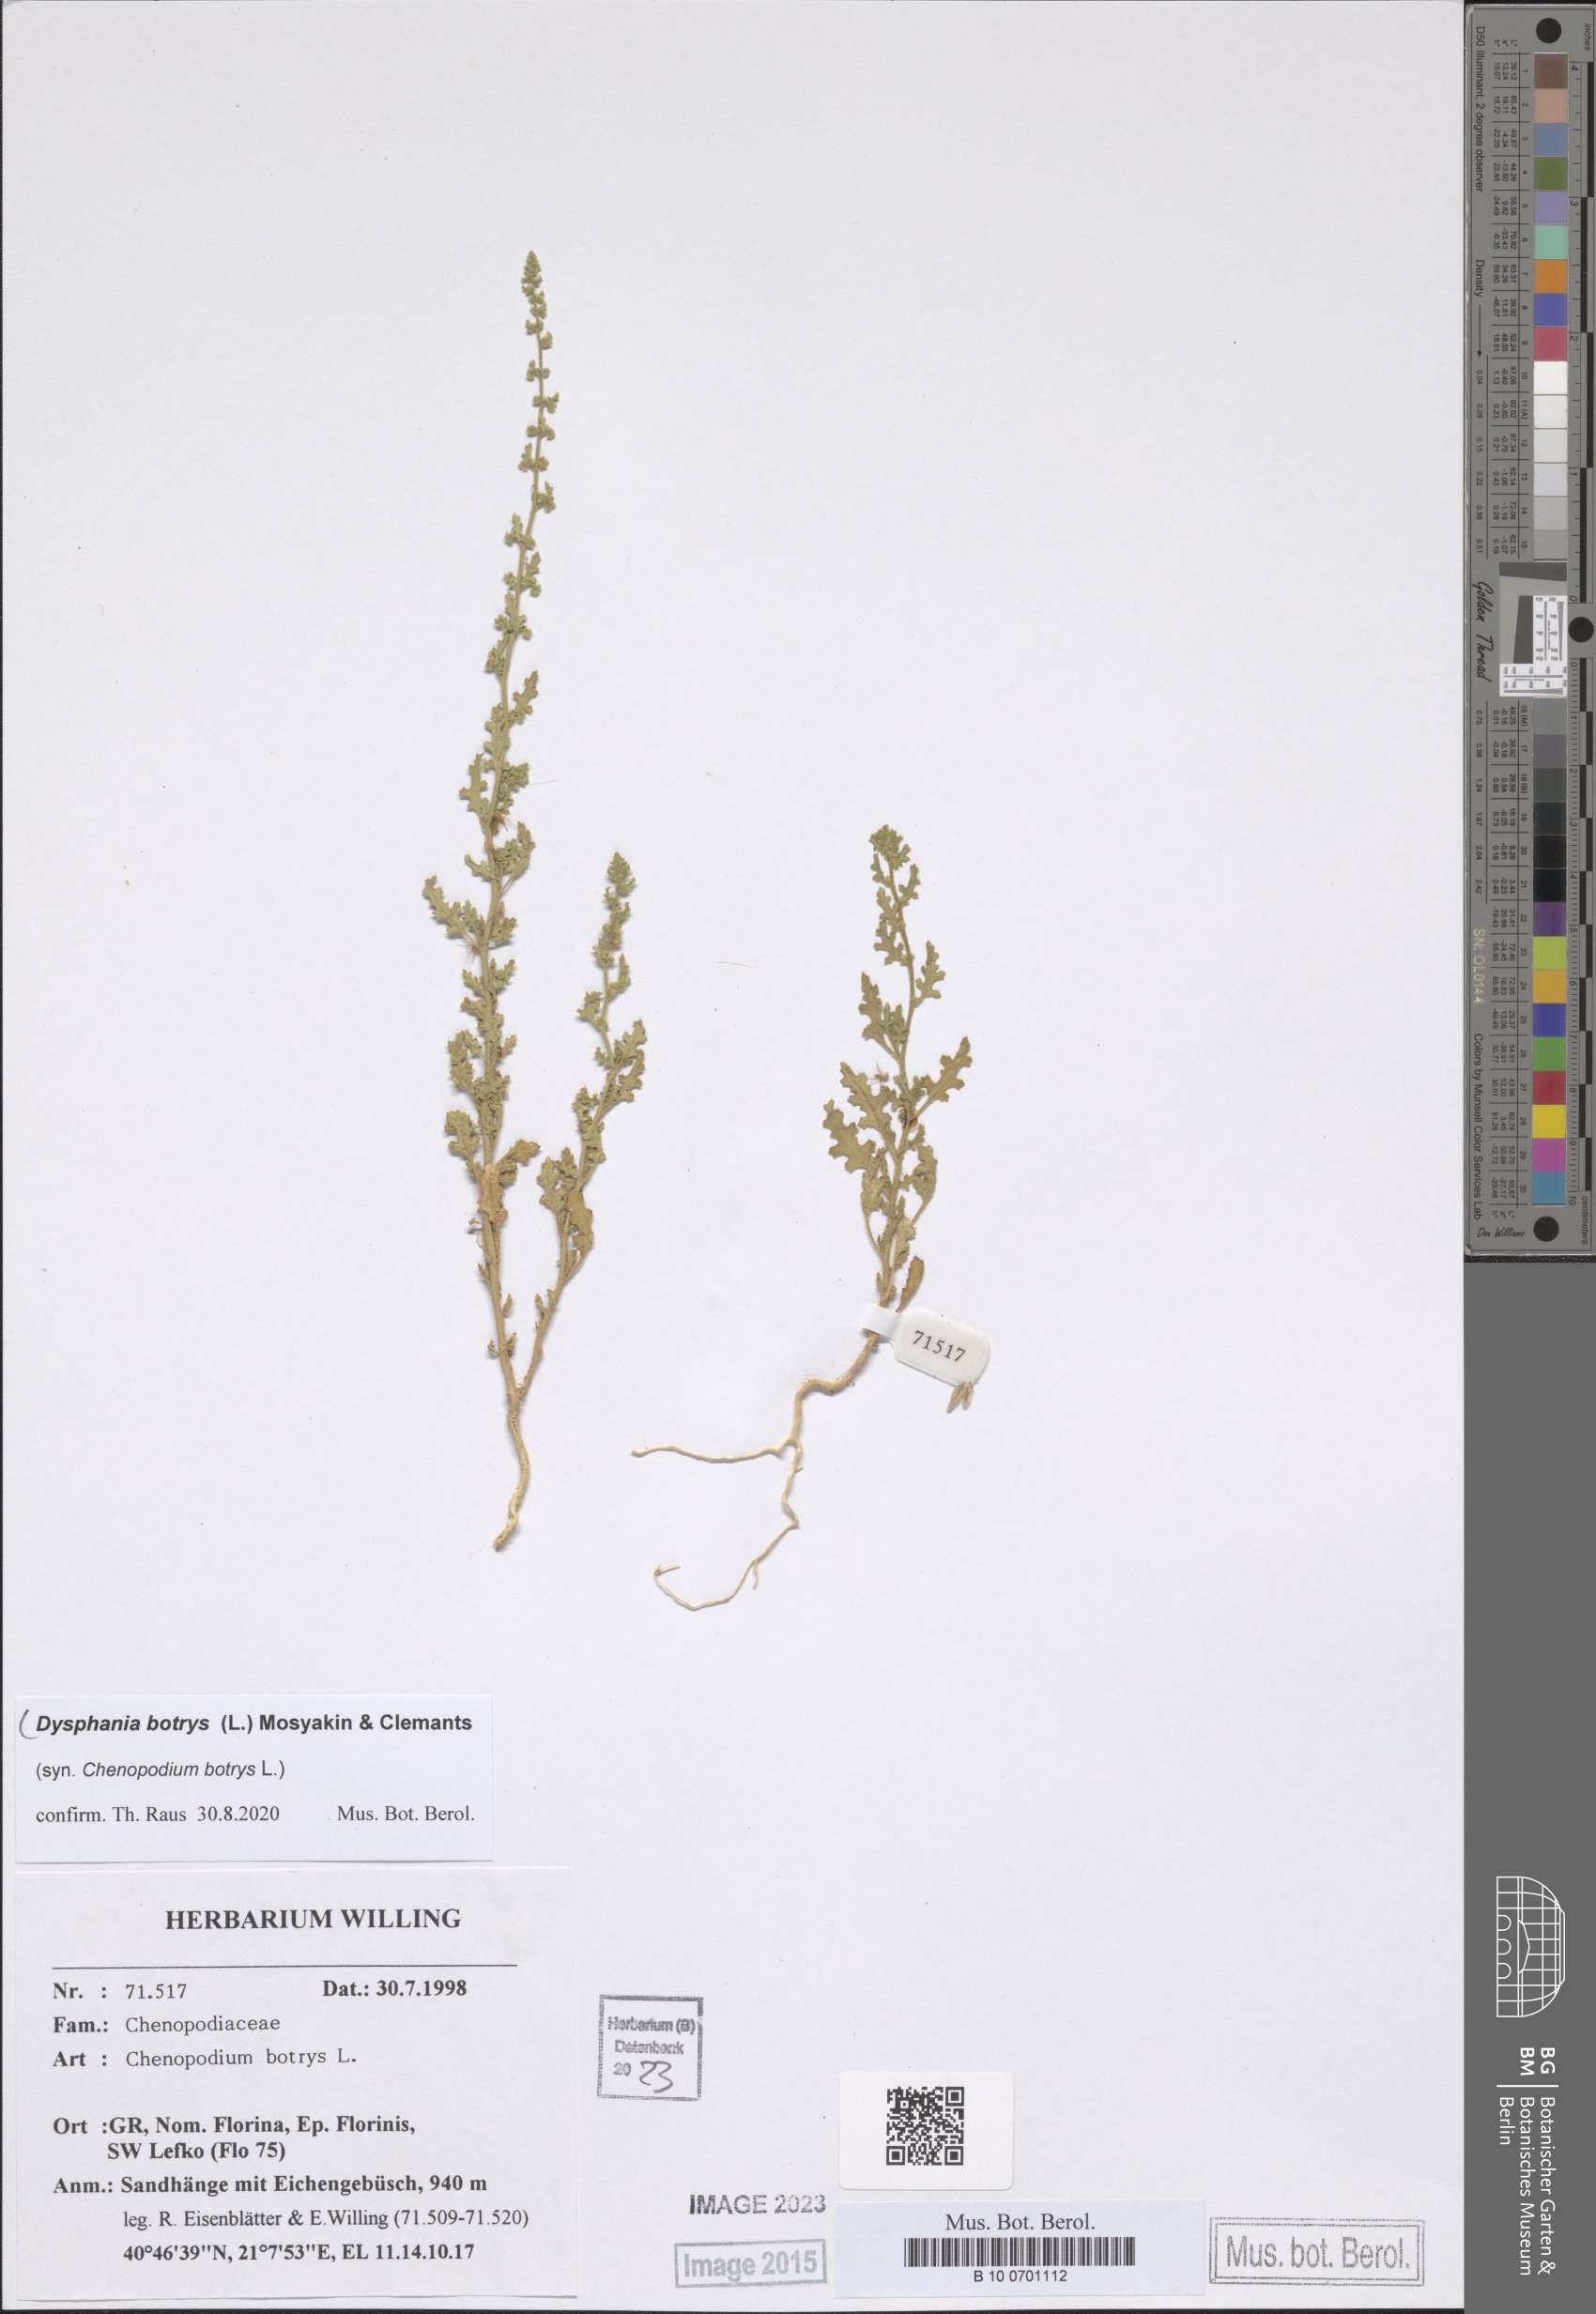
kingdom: Plantae
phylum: Tracheophyta
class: Magnoliopsida
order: Caryophyllales
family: Amaranthaceae
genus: Dysphania
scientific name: Dysphania botrys
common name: Feather-geranium
